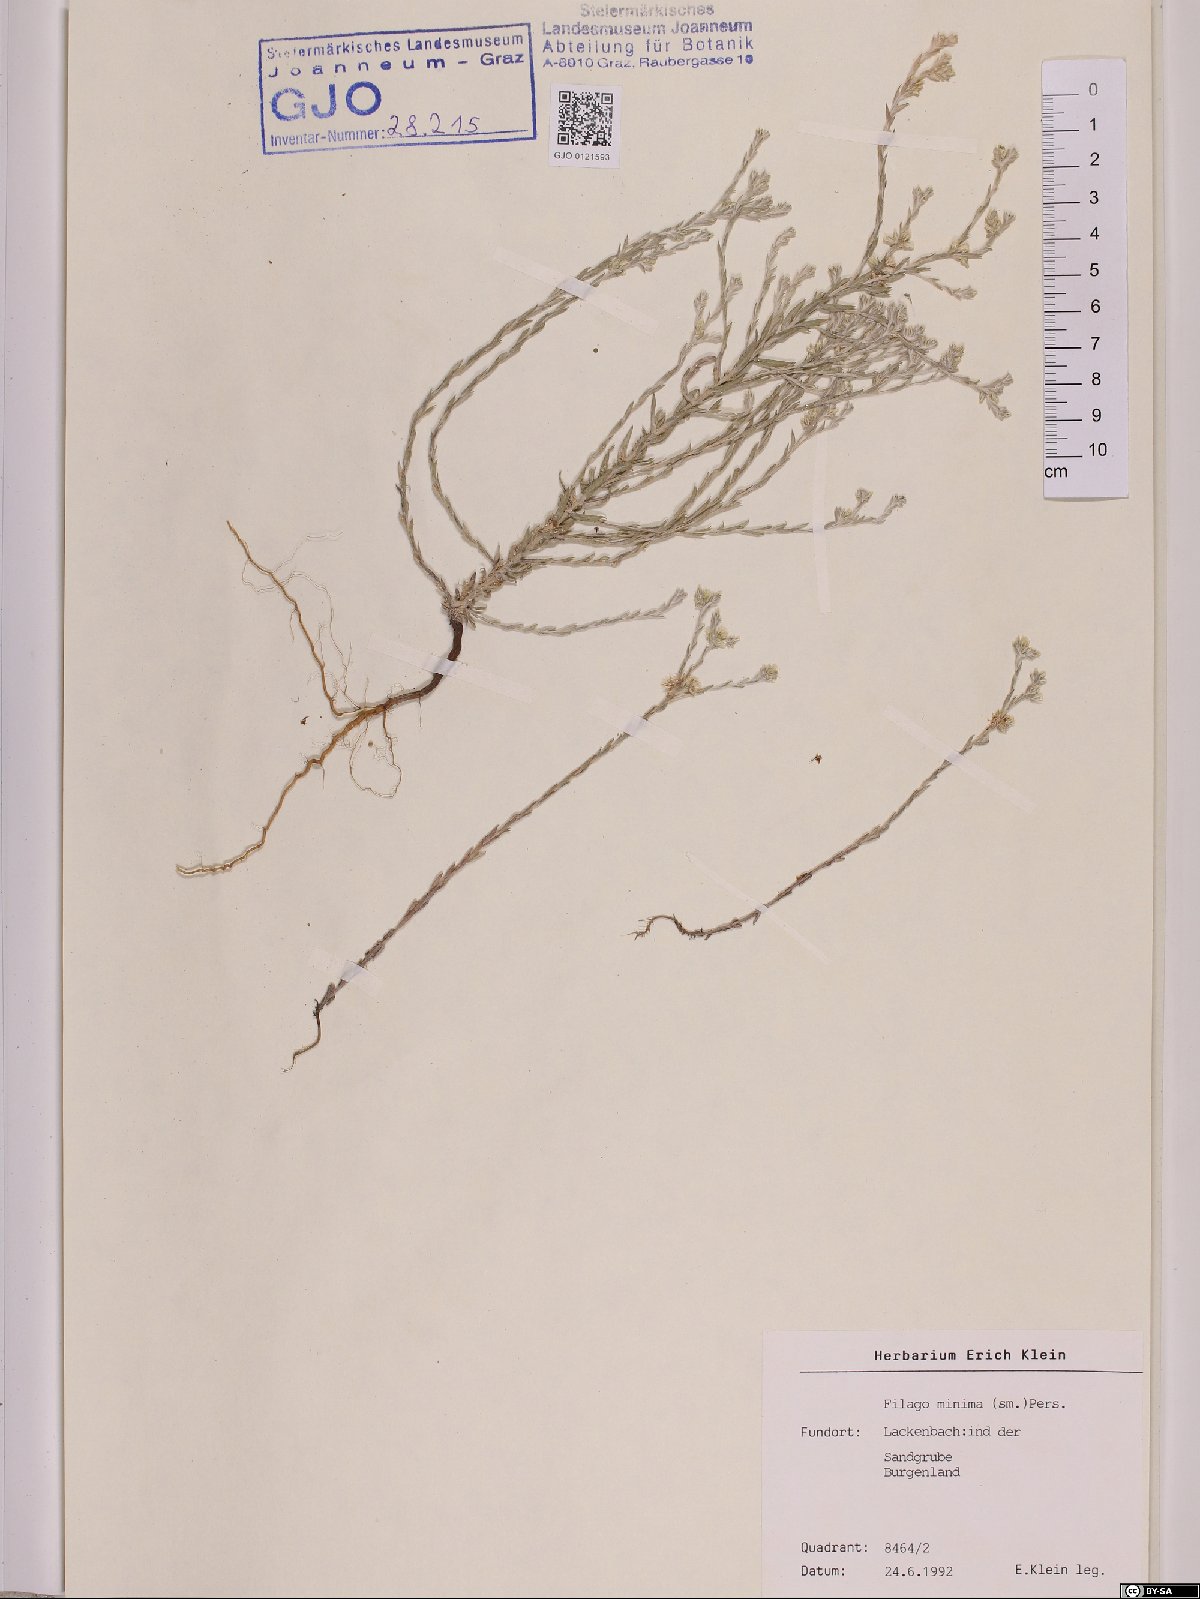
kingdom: Plantae
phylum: Tracheophyta
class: Magnoliopsida
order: Asterales
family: Asteraceae
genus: Logfia
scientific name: Logfia minima
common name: Little cottonrose
